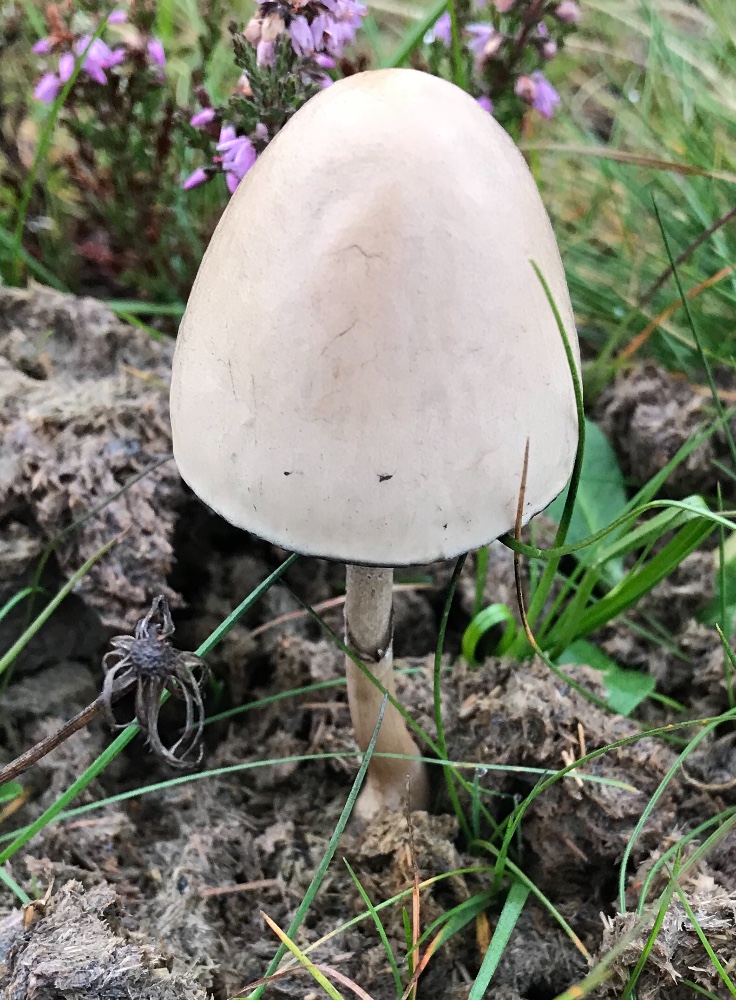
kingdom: Fungi
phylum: Basidiomycota
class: Agaricomycetes
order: Agaricales
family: Bolbitiaceae
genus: Panaeolus
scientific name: Panaeolus semiovatus
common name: ring-glanshat
